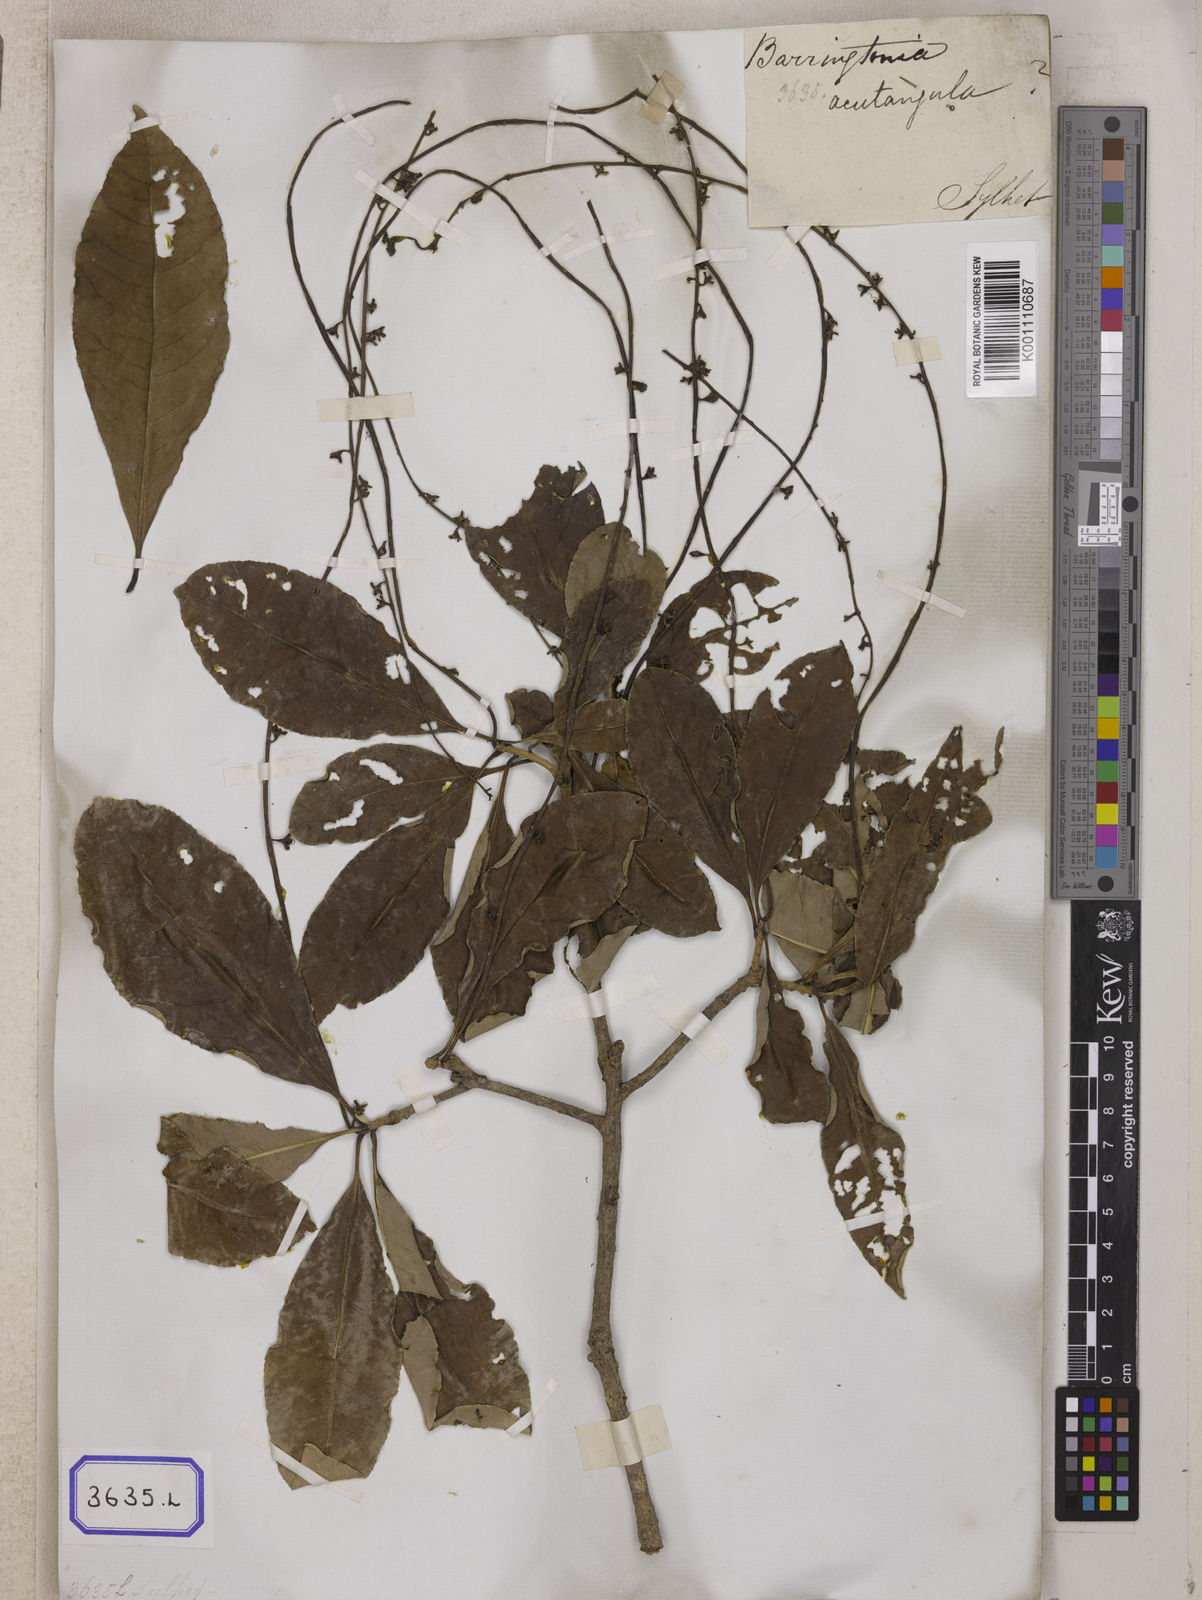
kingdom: Plantae
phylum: Tracheophyta
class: Magnoliopsida
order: Ericales
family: Lecythidaceae
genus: Barringtonia
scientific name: Barringtonia acutangula
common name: Freshwater mangrove
